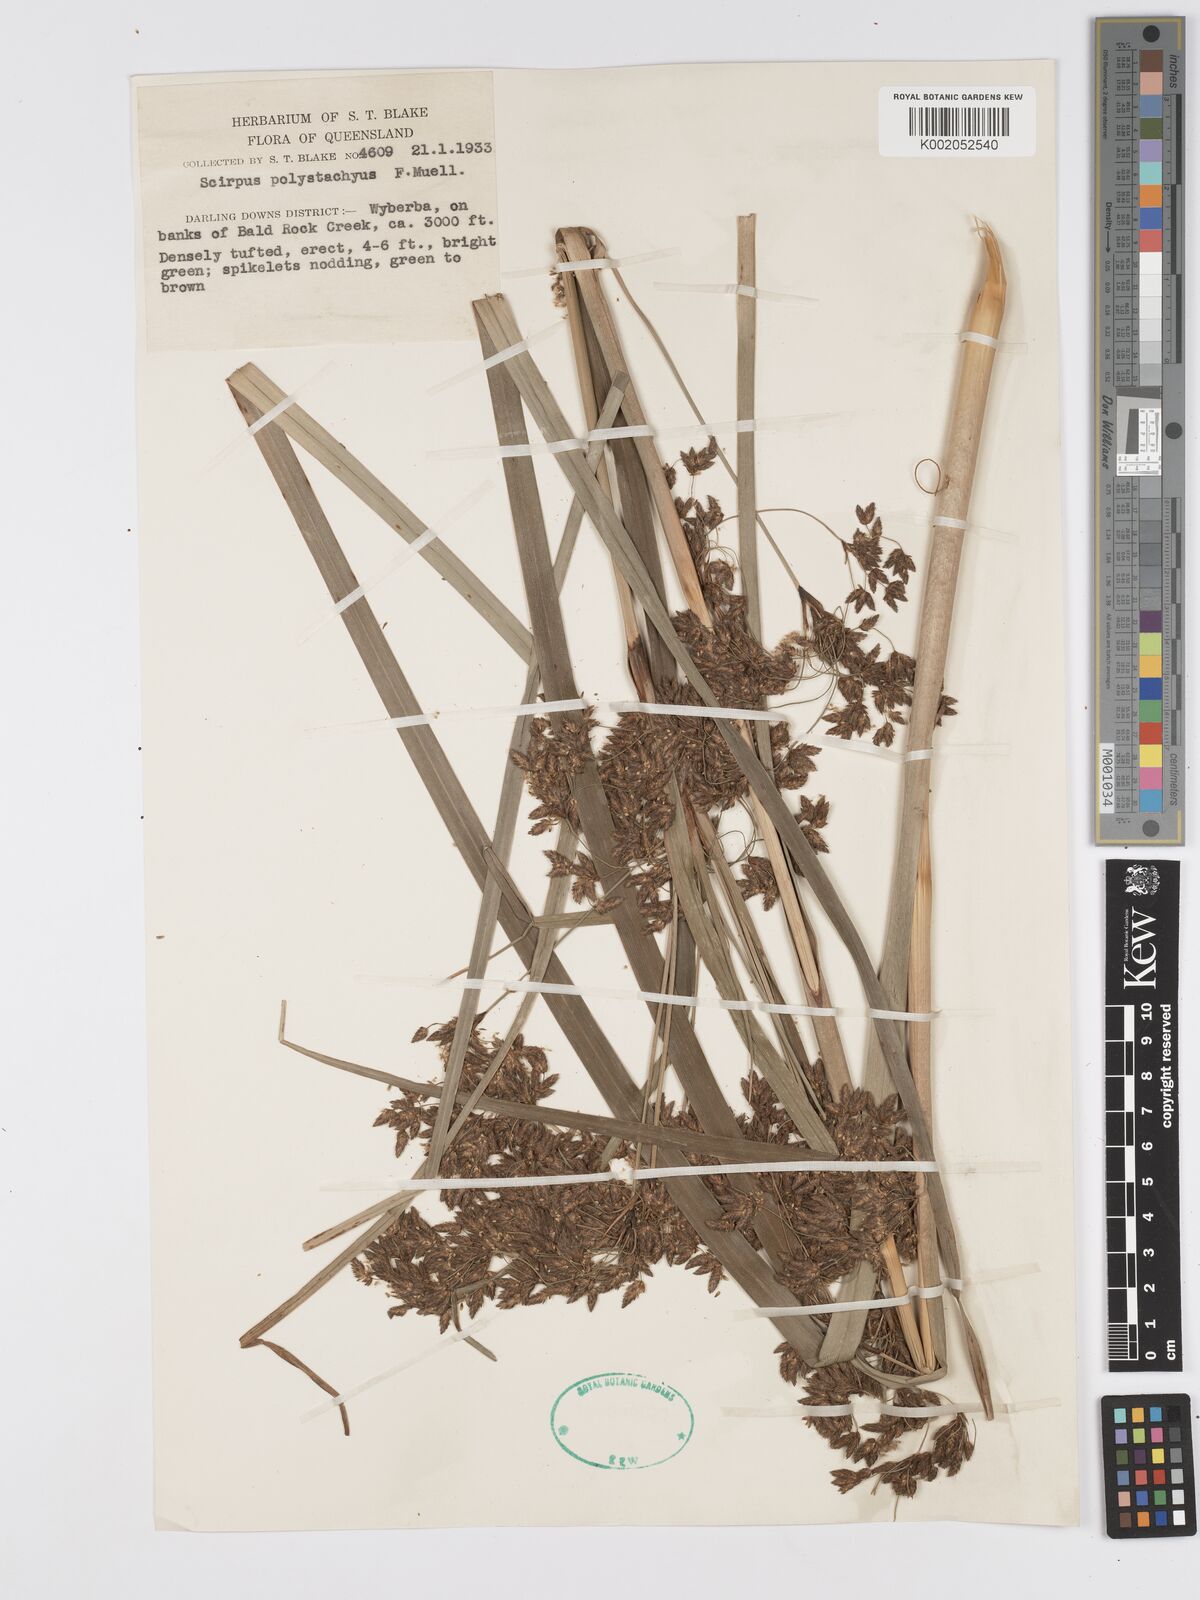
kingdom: Plantae
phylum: Tracheophyta
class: Liliopsida
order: Poales
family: Cyperaceae
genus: Scirpus
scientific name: Scirpus polystachyus
